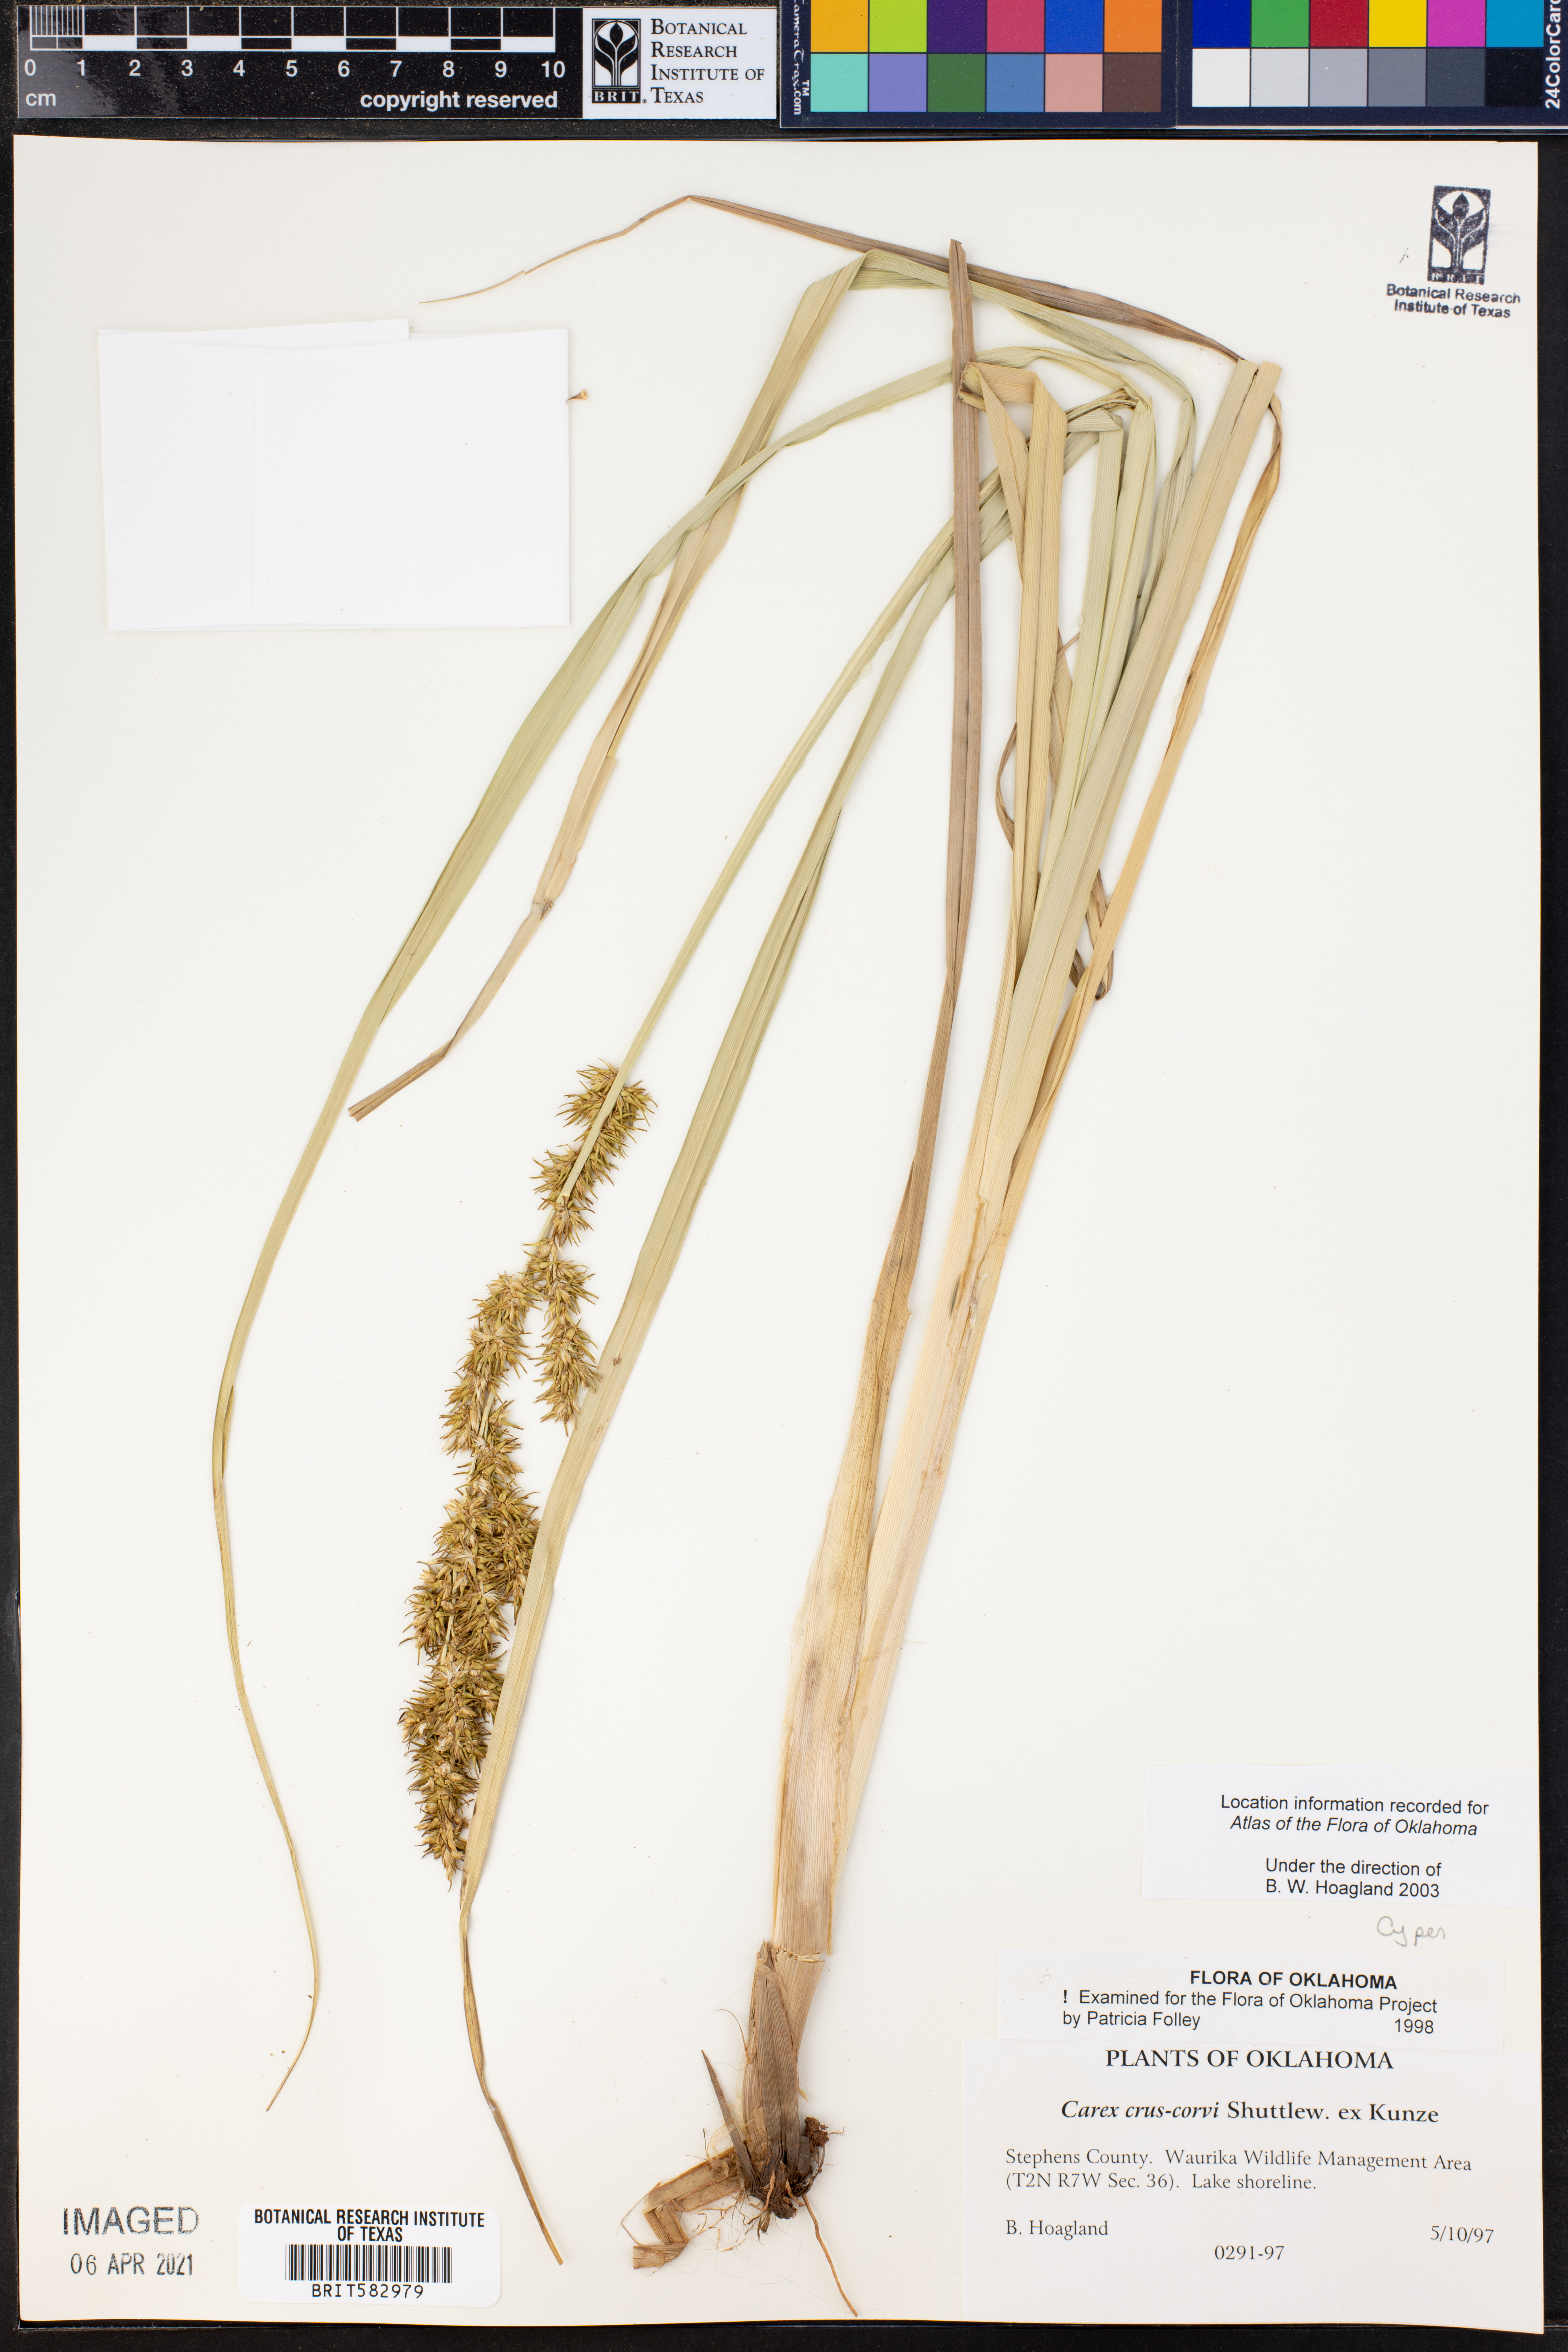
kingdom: Plantae
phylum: Tracheophyta
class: Liliopsida
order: Poales
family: Cyperaceae
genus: Carex
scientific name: Carex crus-corvi
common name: Crow-spur sedge
